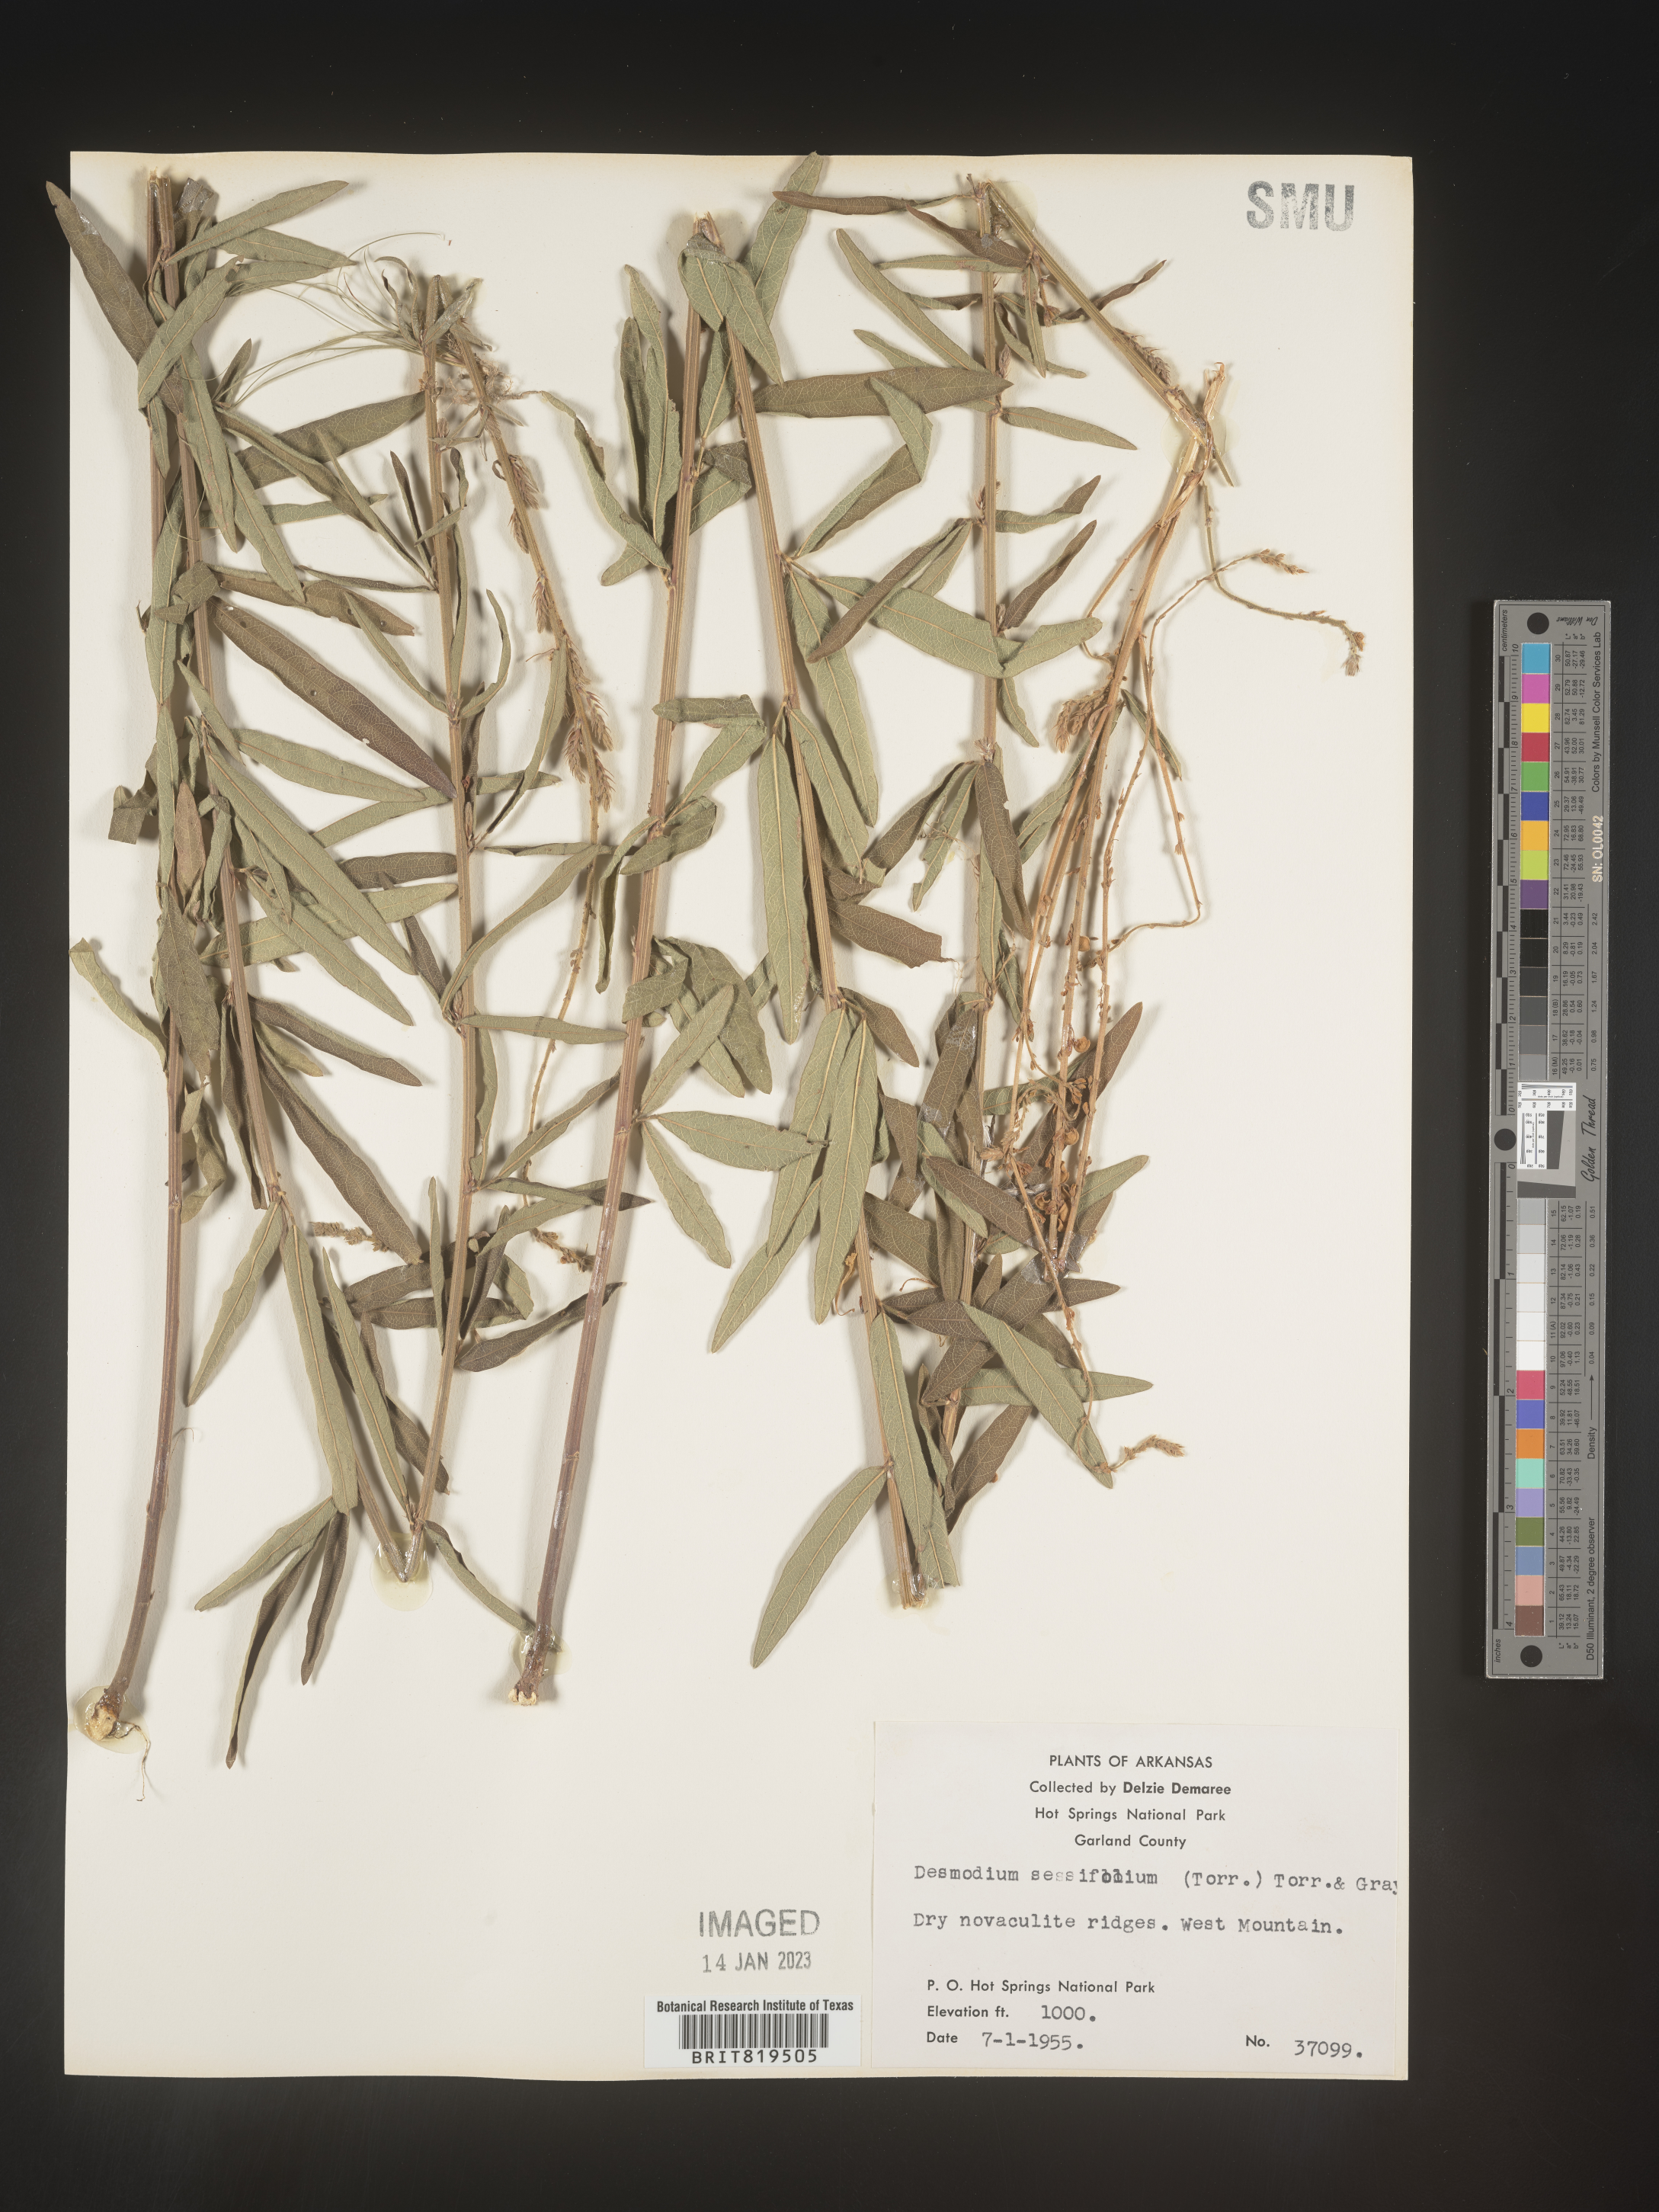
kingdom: Plantae
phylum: Tracheophyta
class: Magnoliopsida
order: Fabales
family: Fabaceae
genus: Desmodium
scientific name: Desmodium sessilifolium
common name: Sessile tick-clover
